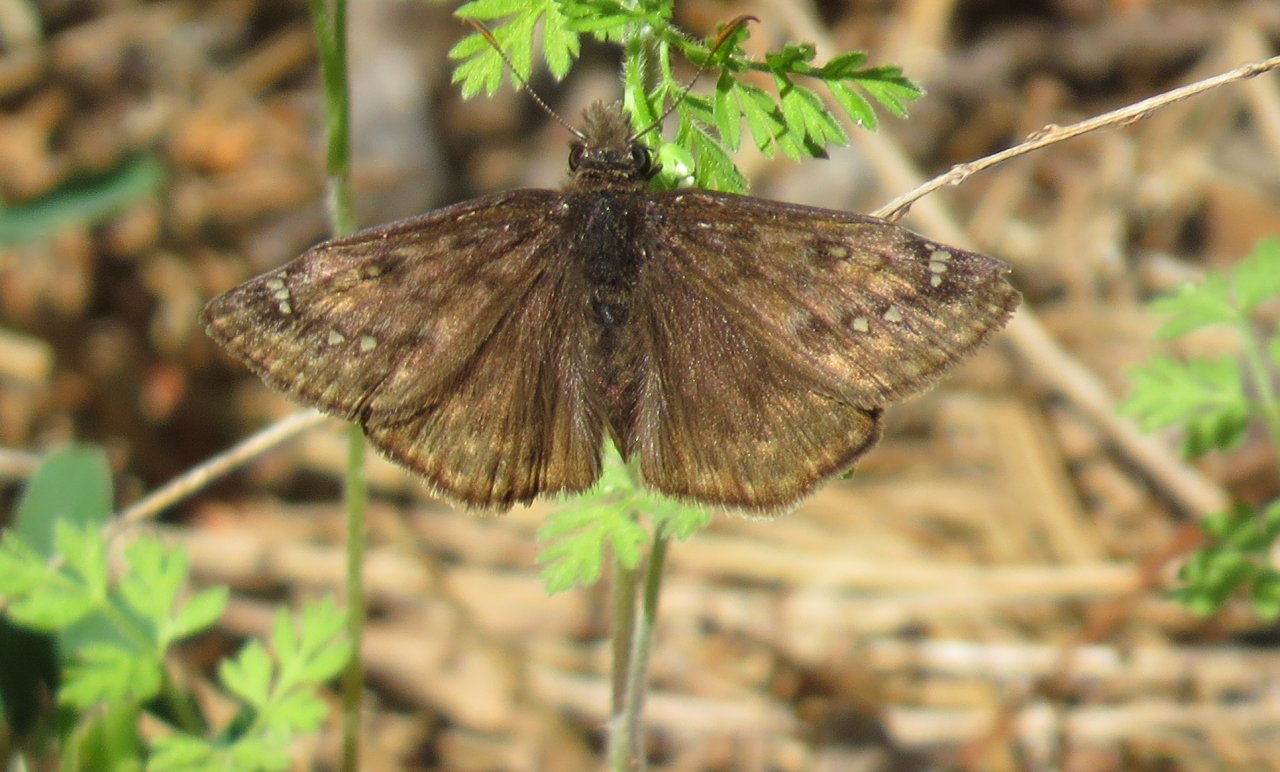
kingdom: Animalia
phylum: Arthropoda
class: Insecta
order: Lepidoptera
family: Hesperiidae
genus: Gesta
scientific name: Gesta
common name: Juvenal's Duskywing
